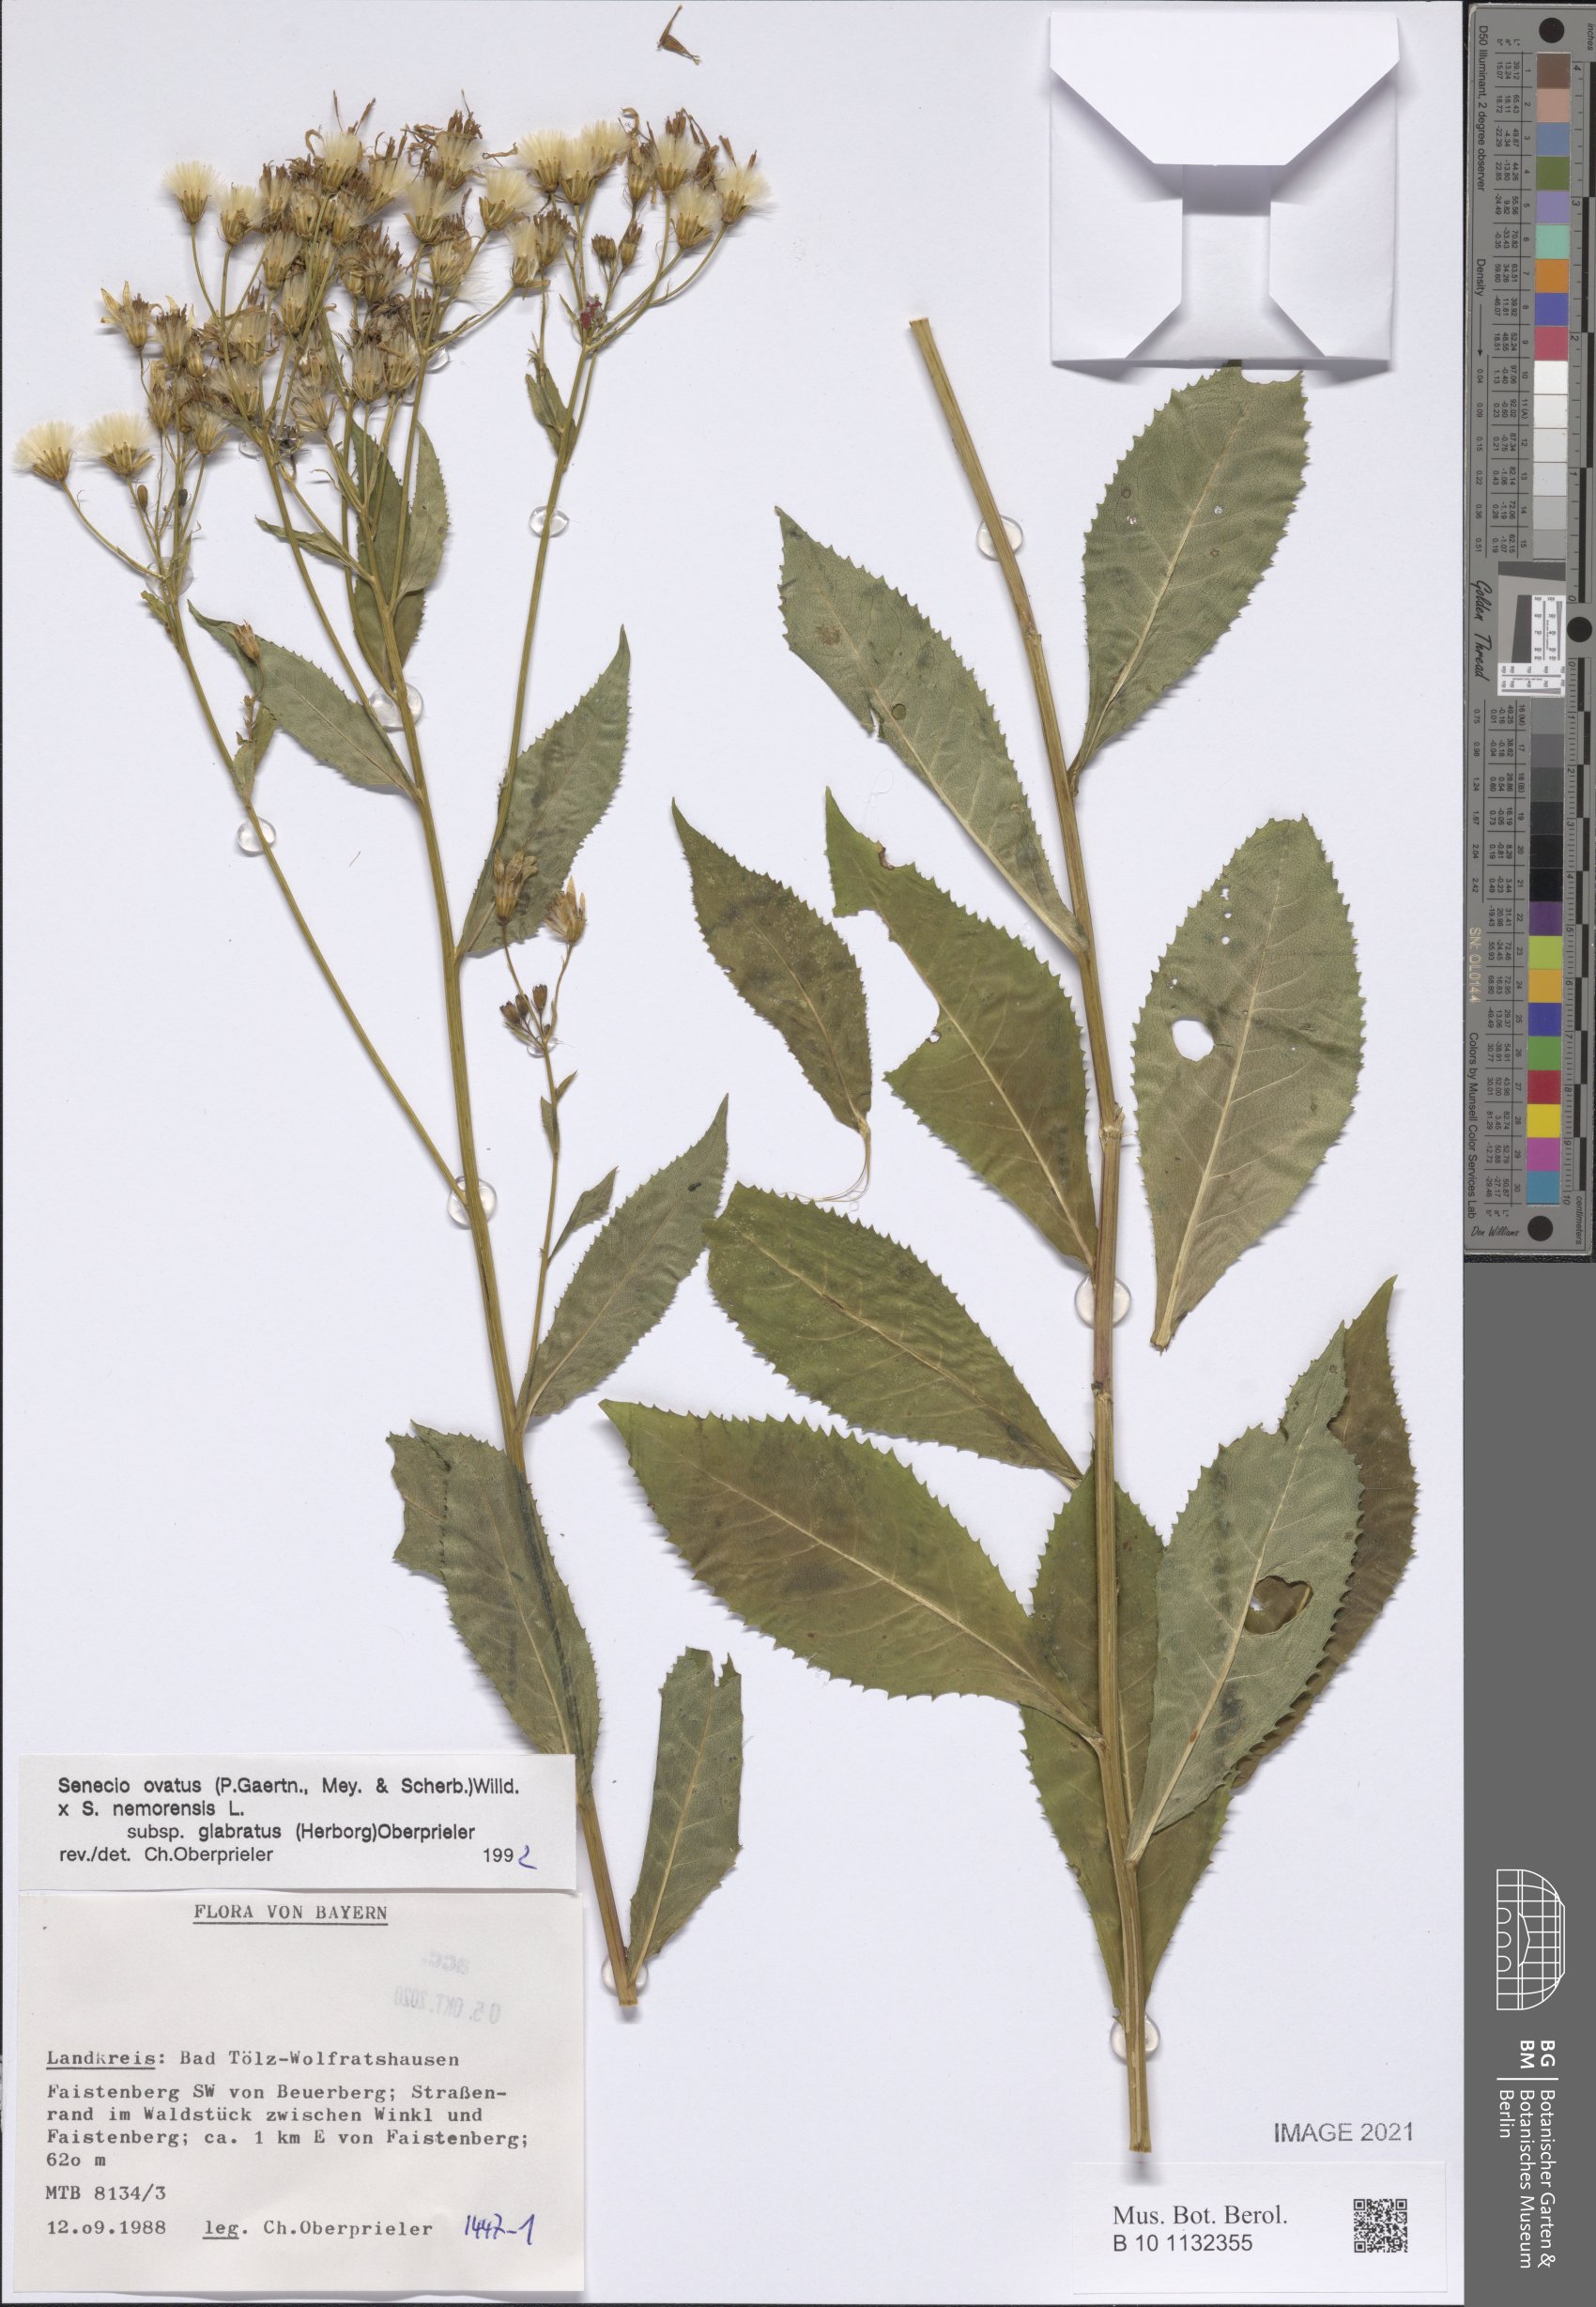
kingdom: Plantae
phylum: Tracheophyta
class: Magnoliopsida
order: Asterales
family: Asteraceae
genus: Senecio
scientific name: Senecio ovatus
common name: Wood ragwort
